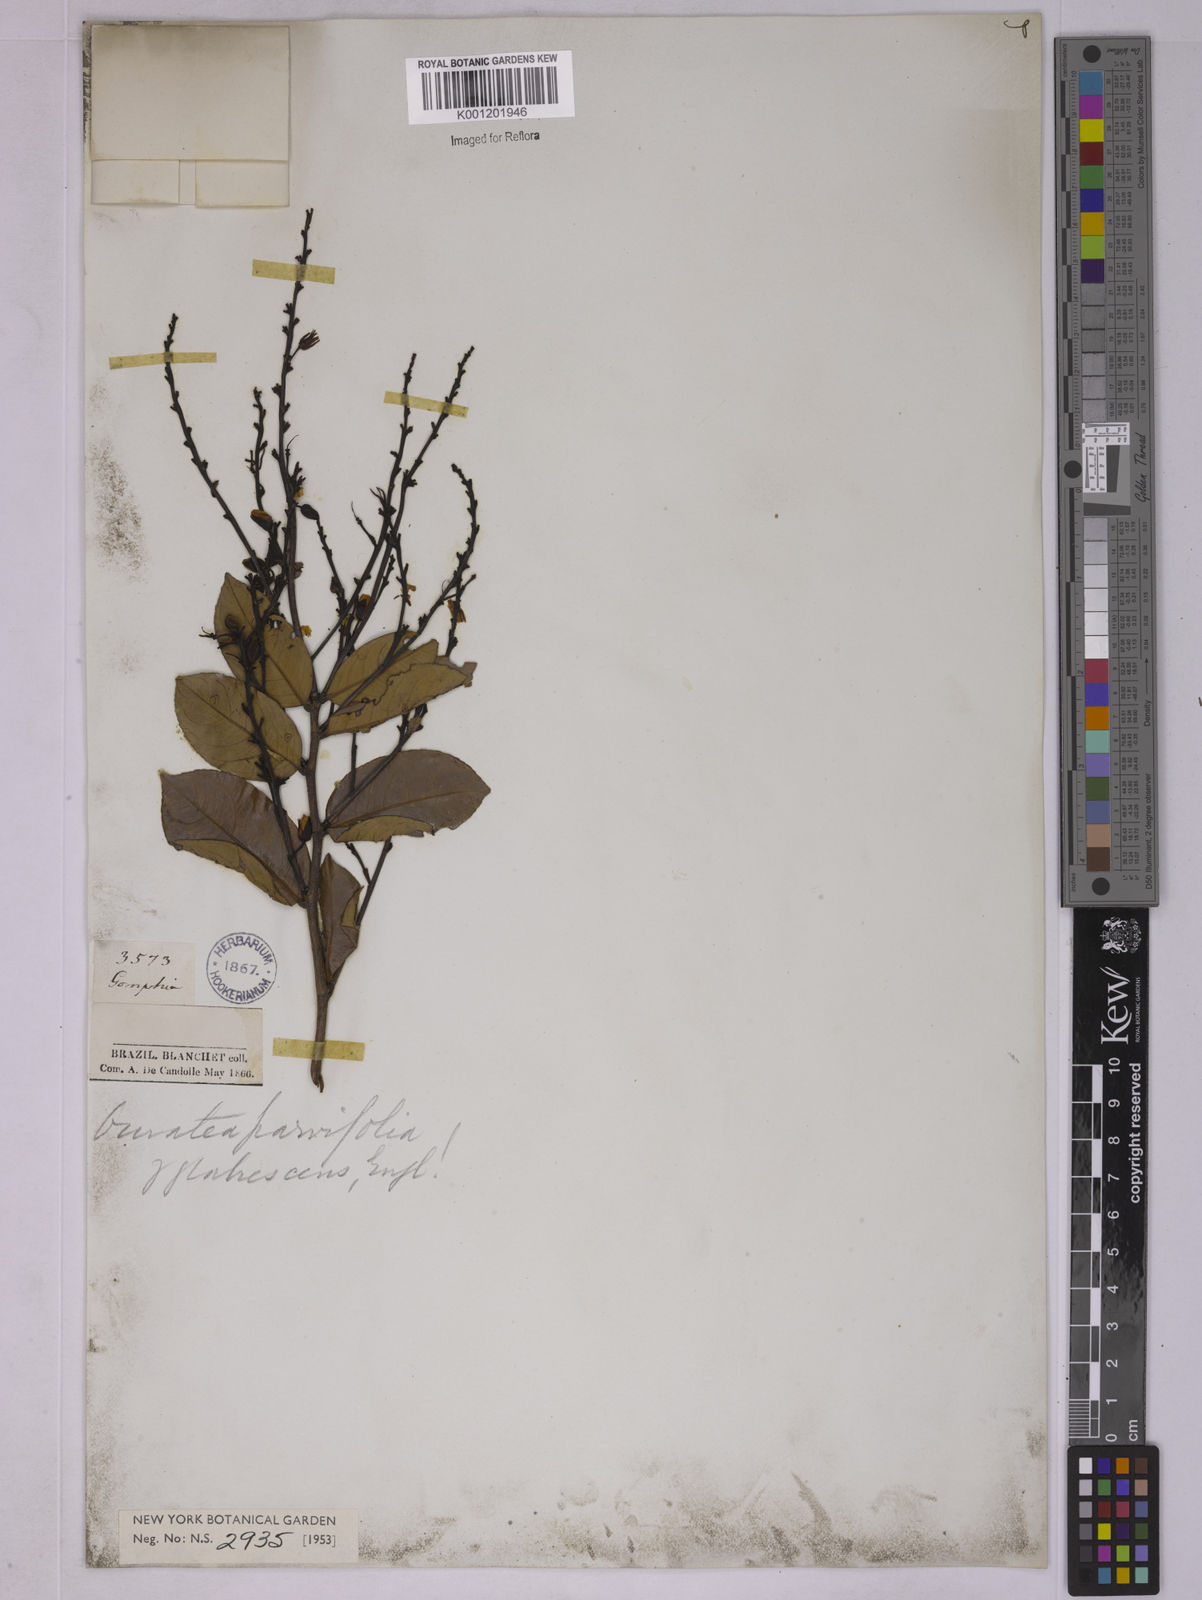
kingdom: Plantae
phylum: Tracheophyta
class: Magnoliopsida
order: Malpighiales
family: Ochnaceae
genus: Ouratea
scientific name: Ouratea parvifolia
